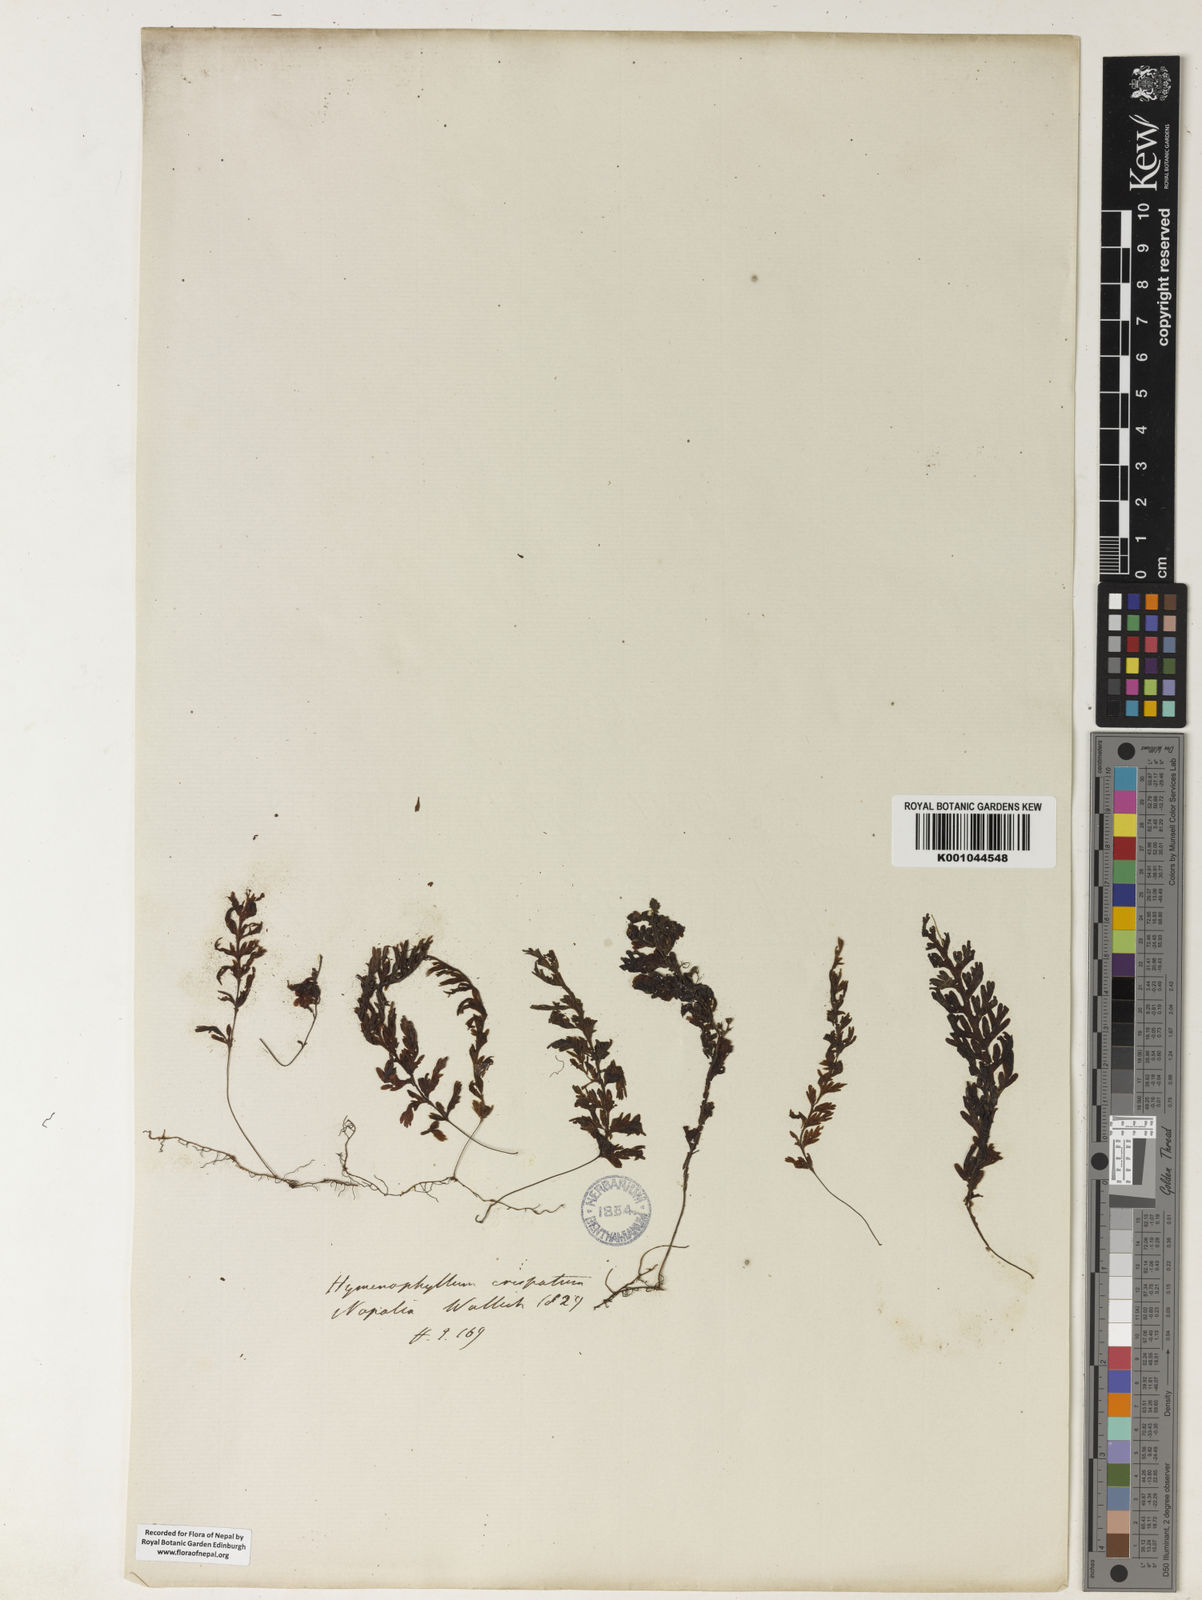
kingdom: Plantae
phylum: Tracheophyta
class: Polypodiopsida
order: Hymenophyllales
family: Hymenophyllaceae
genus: Hymenophyllum
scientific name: Hymenophyllum javanicum
